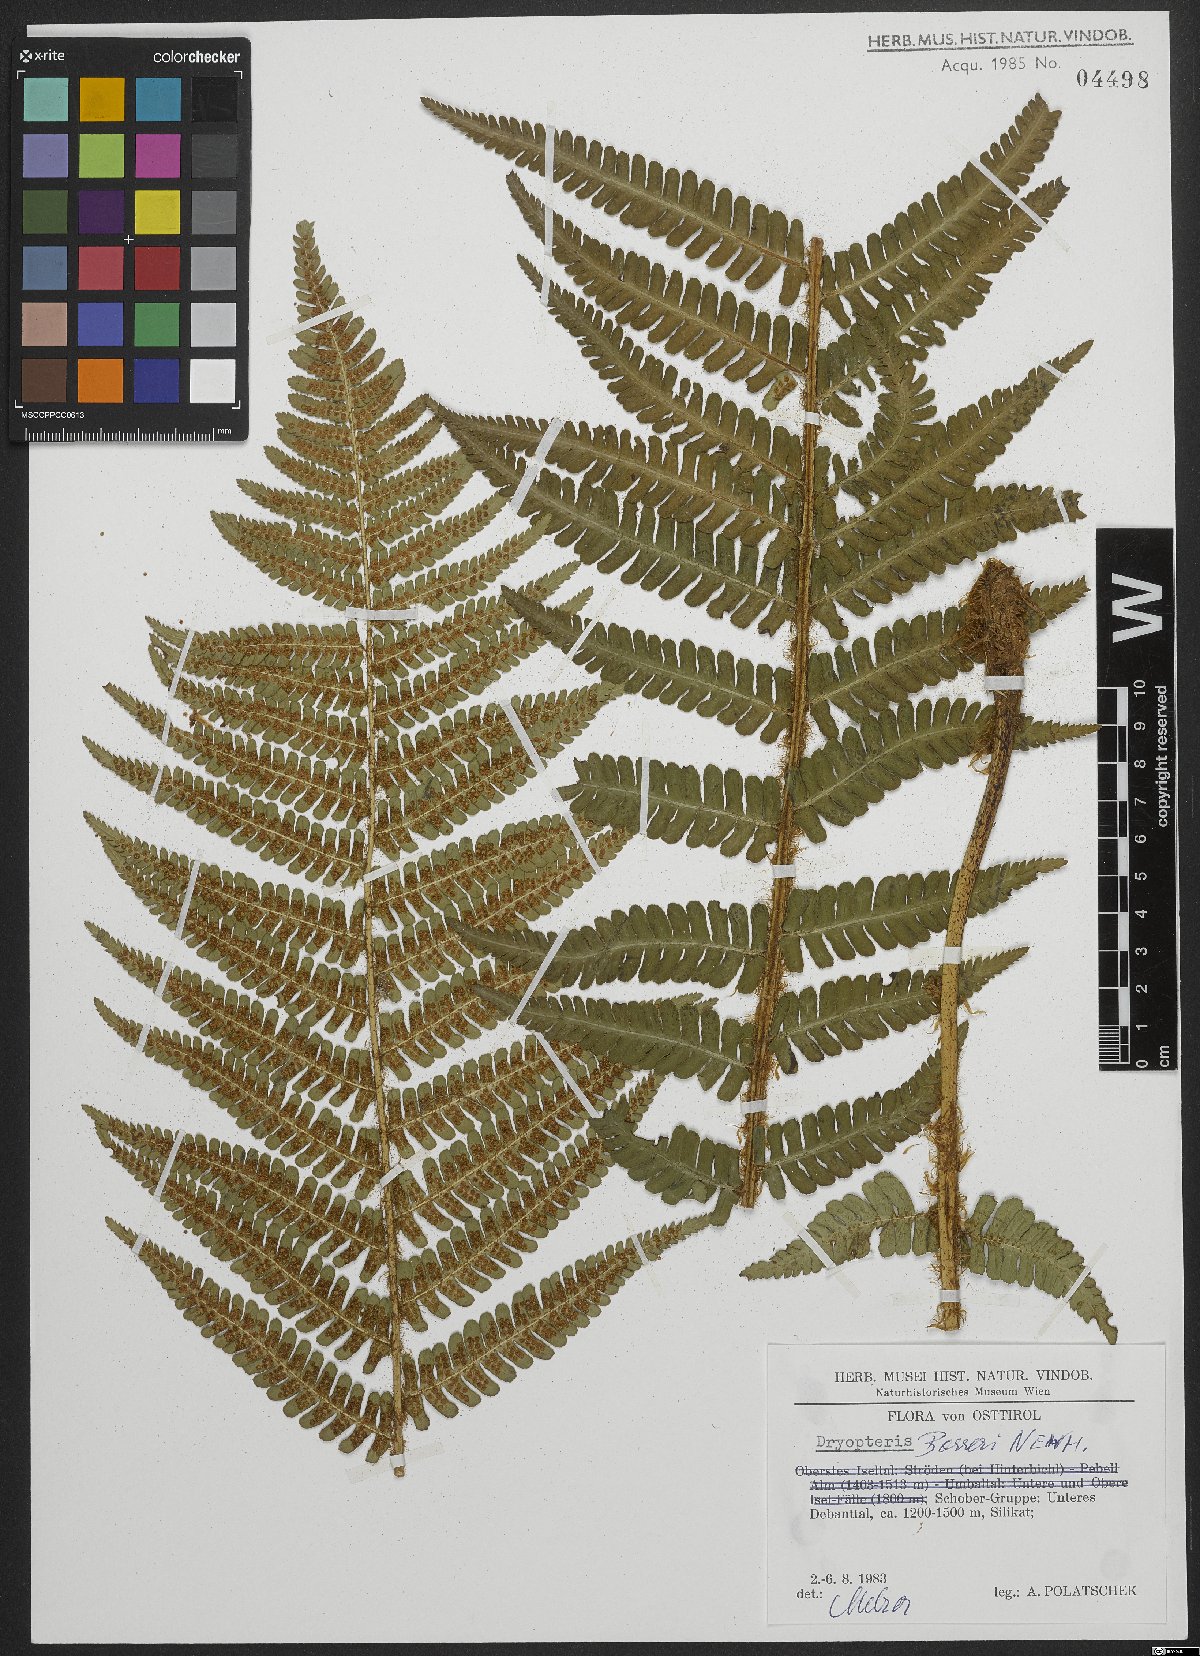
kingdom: Plantae
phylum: Tracheophyta
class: Polypodiopsida
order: Polypodiales
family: Dryopteridaceae
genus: Dryopteris
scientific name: Dryopteris borreri
